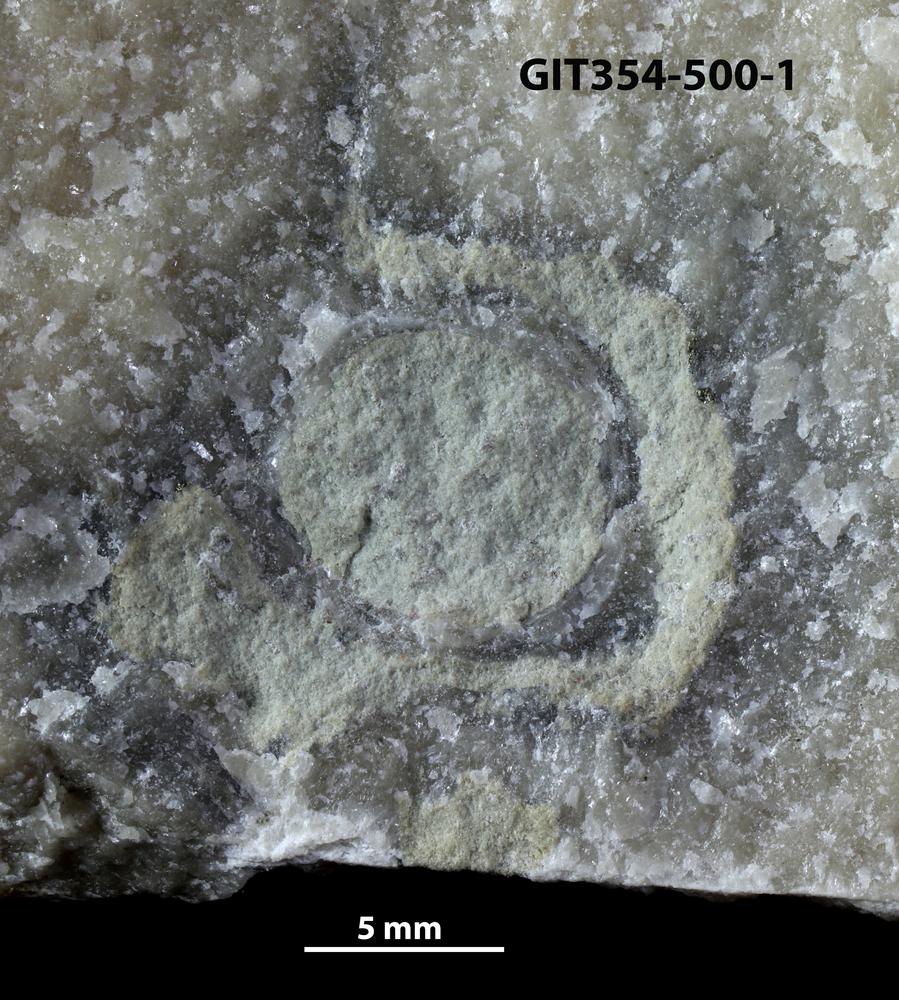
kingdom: Animalia
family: Cornulitidae
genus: Cornulites
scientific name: Cornulites
